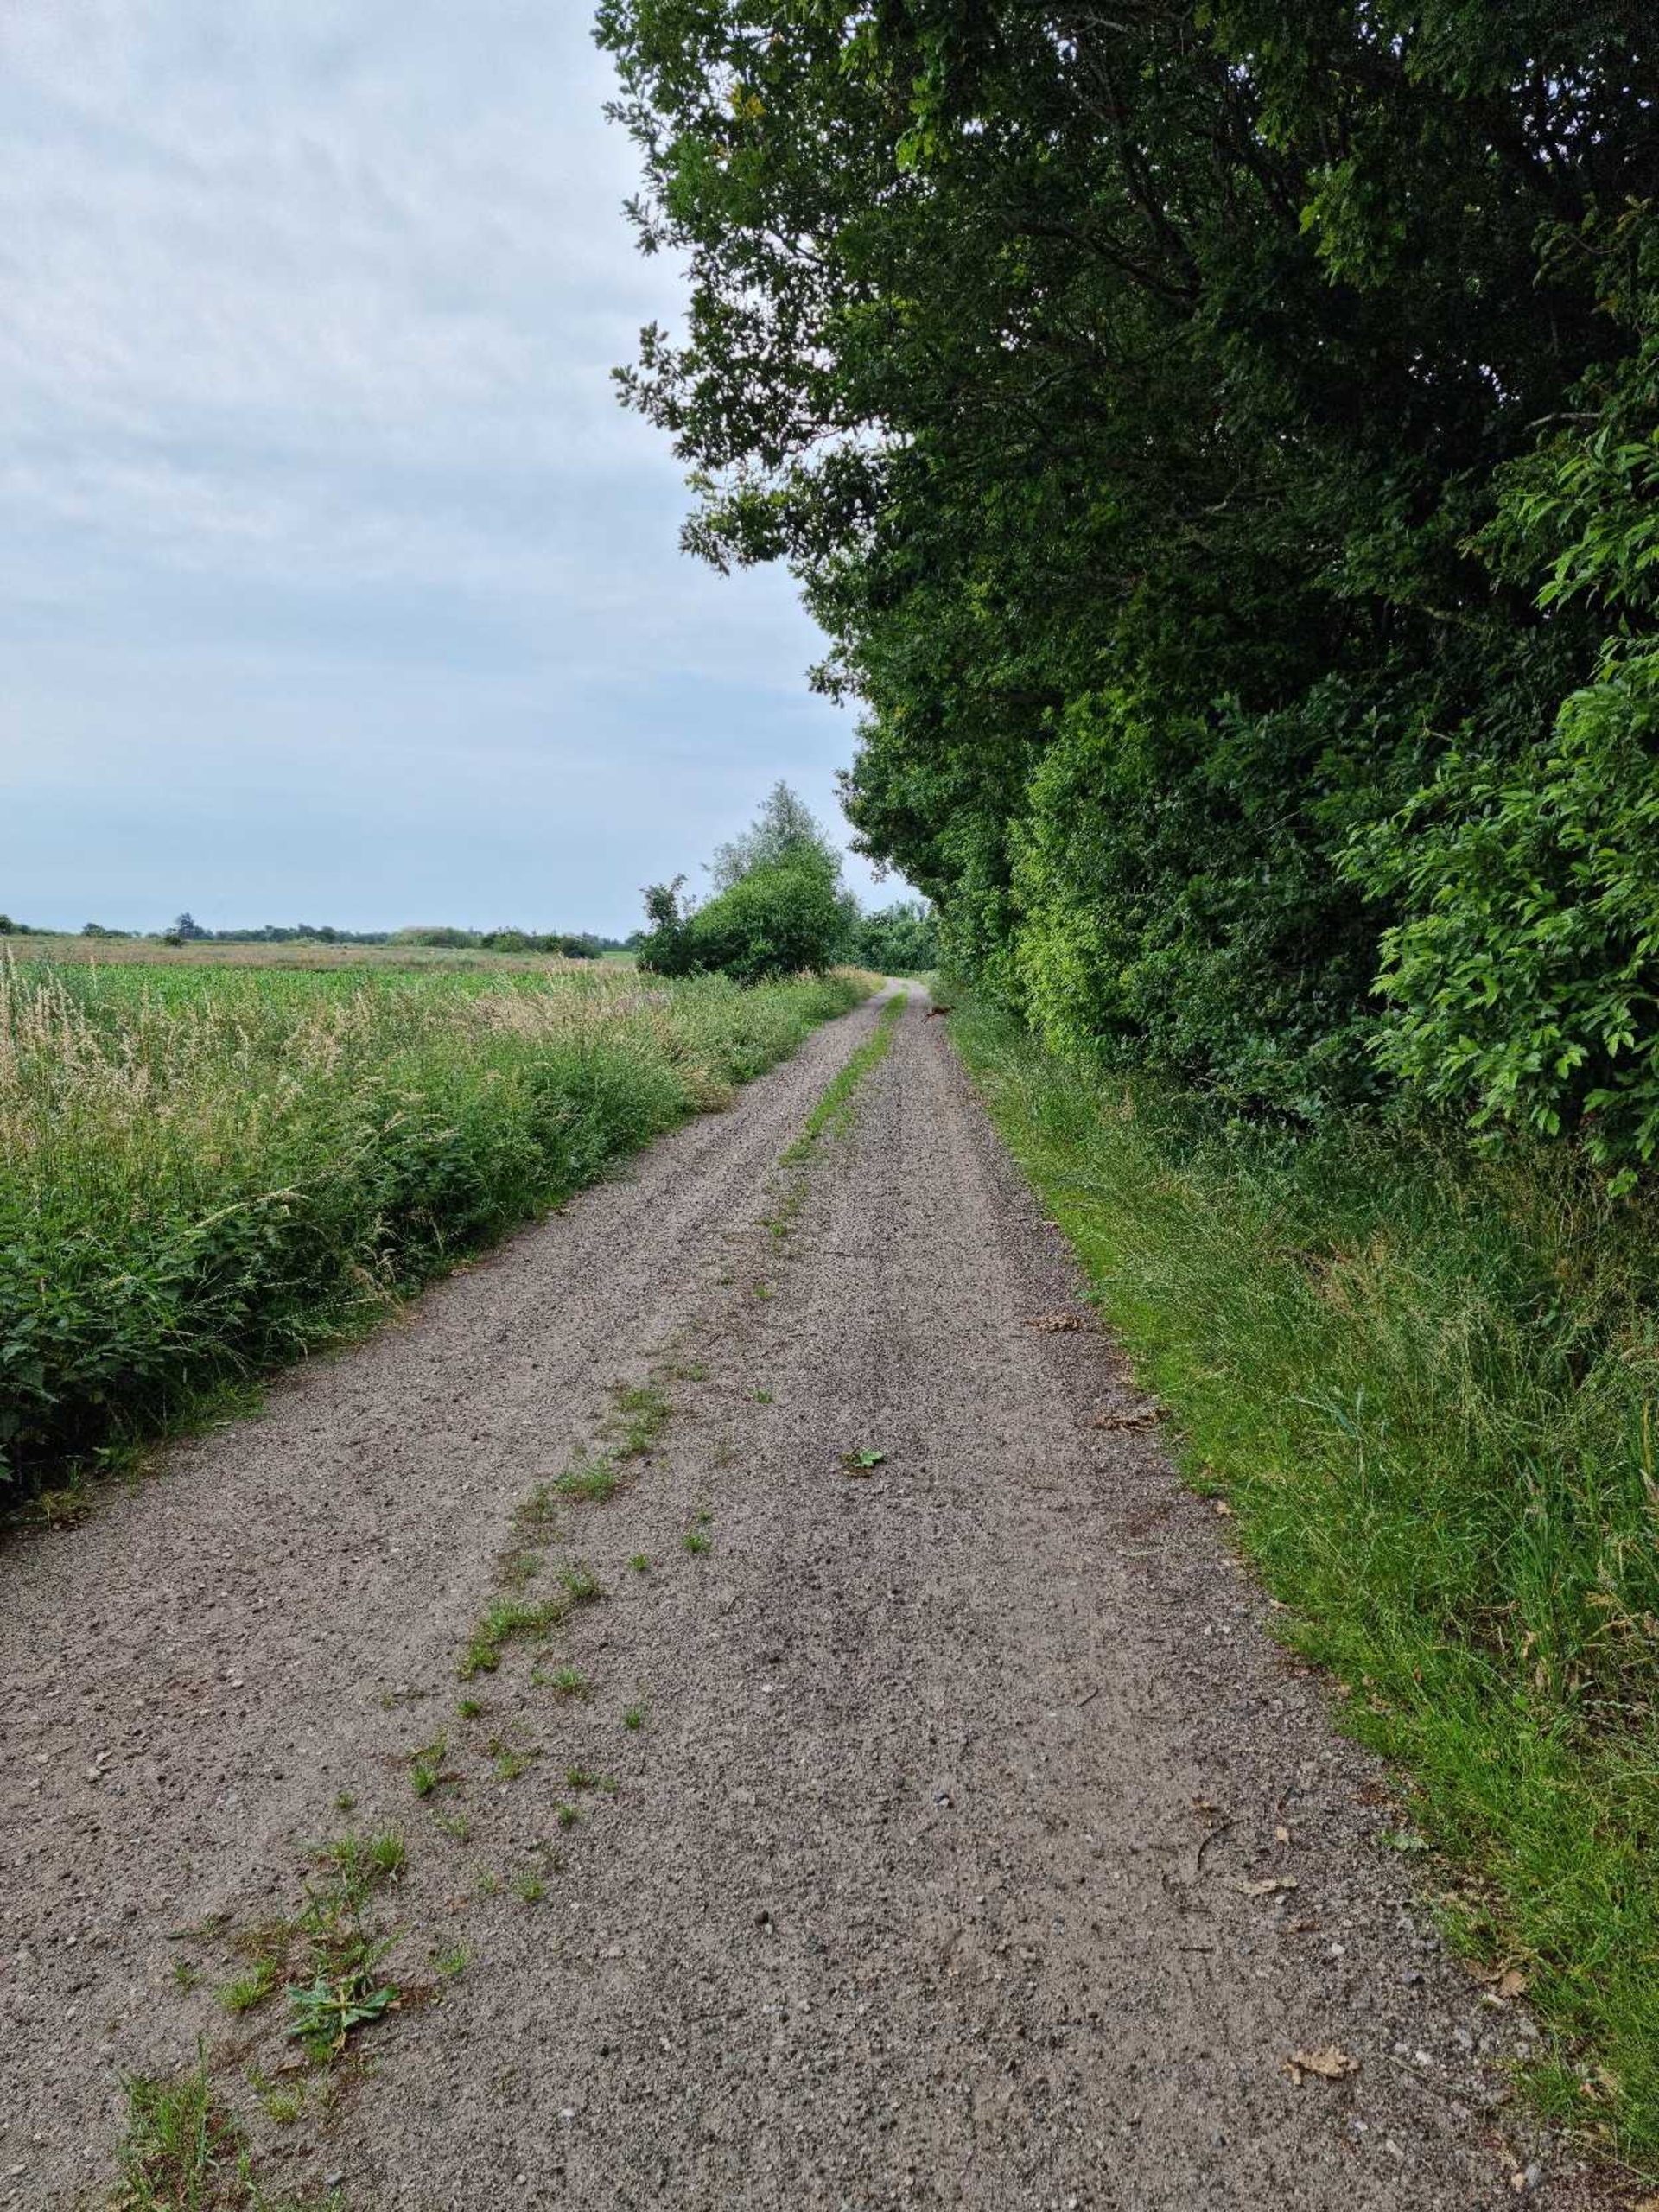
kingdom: Animalia
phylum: Chordata
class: Mammalia
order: Artiodactyla
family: Cervidae
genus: Capreolus
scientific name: Capreolus capreolus
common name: Rådyr
